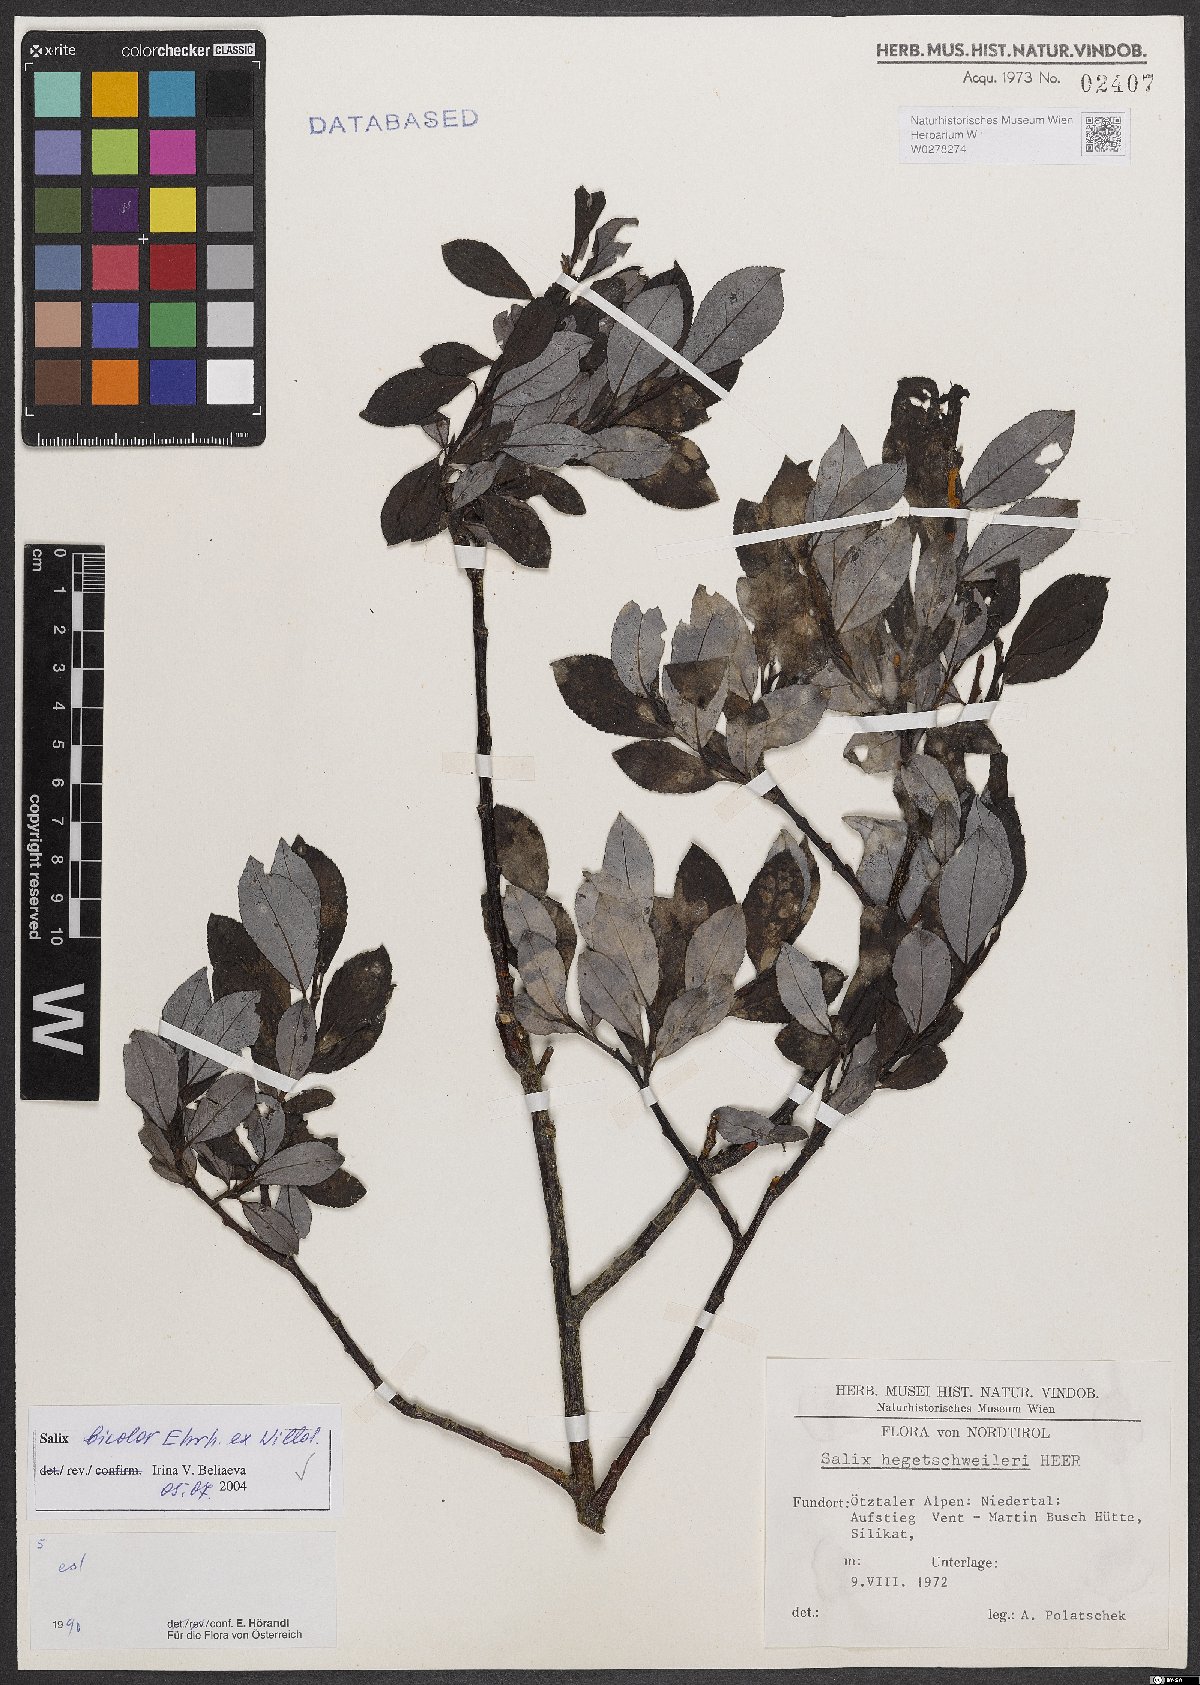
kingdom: Plantae
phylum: Tracheophyta
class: Magnoliopsida
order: Malpighiales
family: Salicaceae
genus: Salix
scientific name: Salix bicolor
